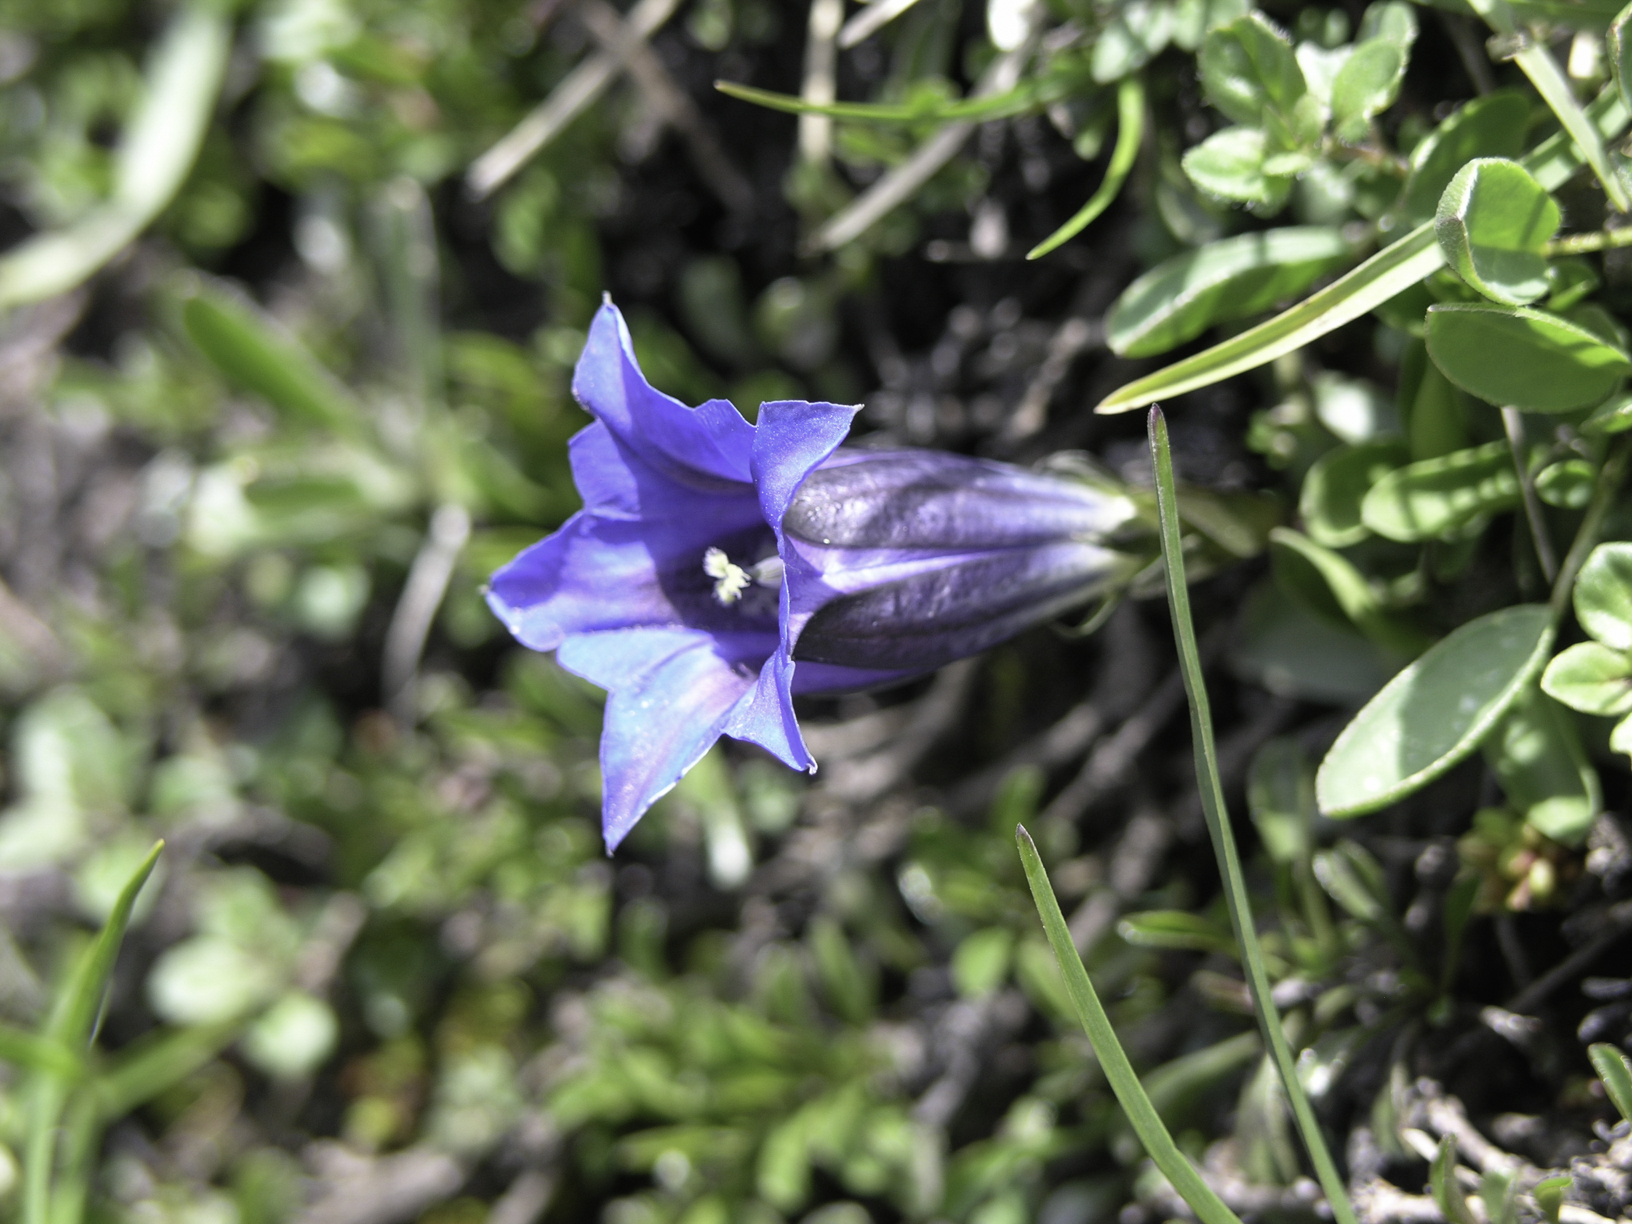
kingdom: Plantae
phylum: Tracheophyta
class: Magnoliopsida
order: Gentianales
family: Gentianaceae
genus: Gentiana
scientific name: Gentiana clusii
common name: Trumpet gentian
